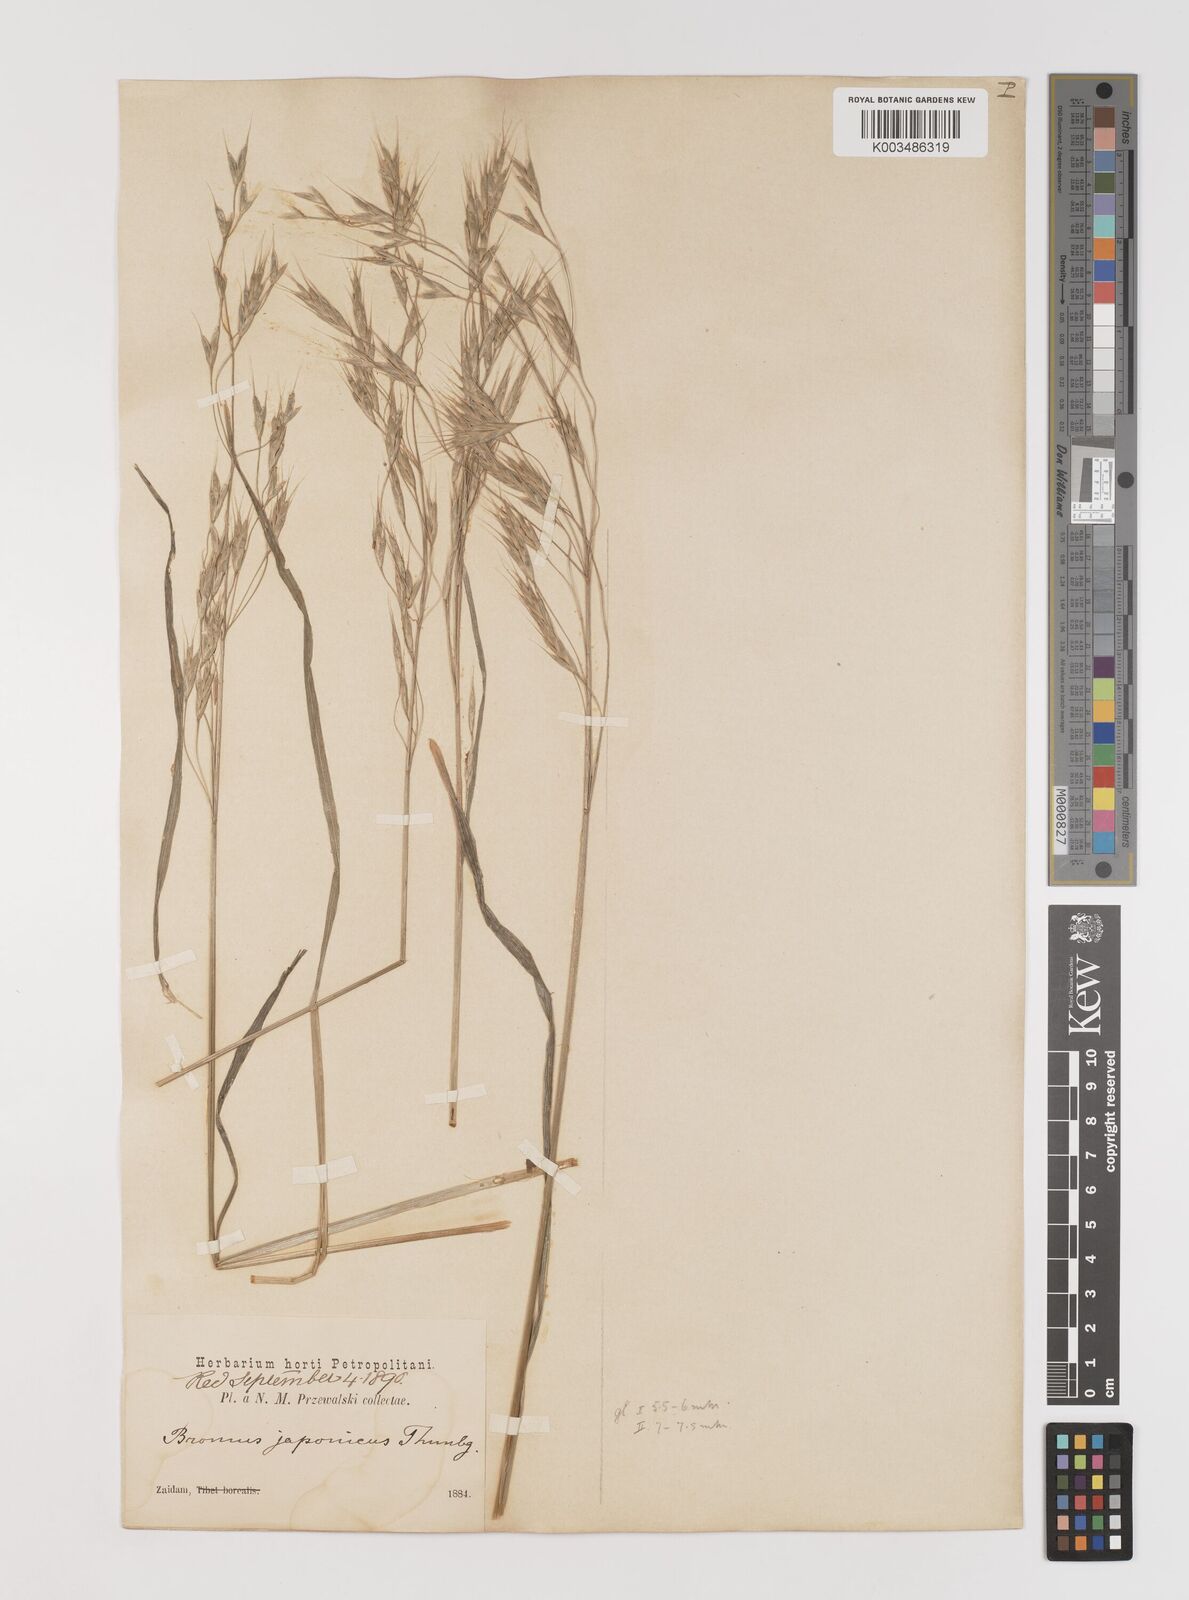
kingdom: Plantae
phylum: Tracheophyta
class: Liliopsida
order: Poales
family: Poaceae
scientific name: Poaceae
